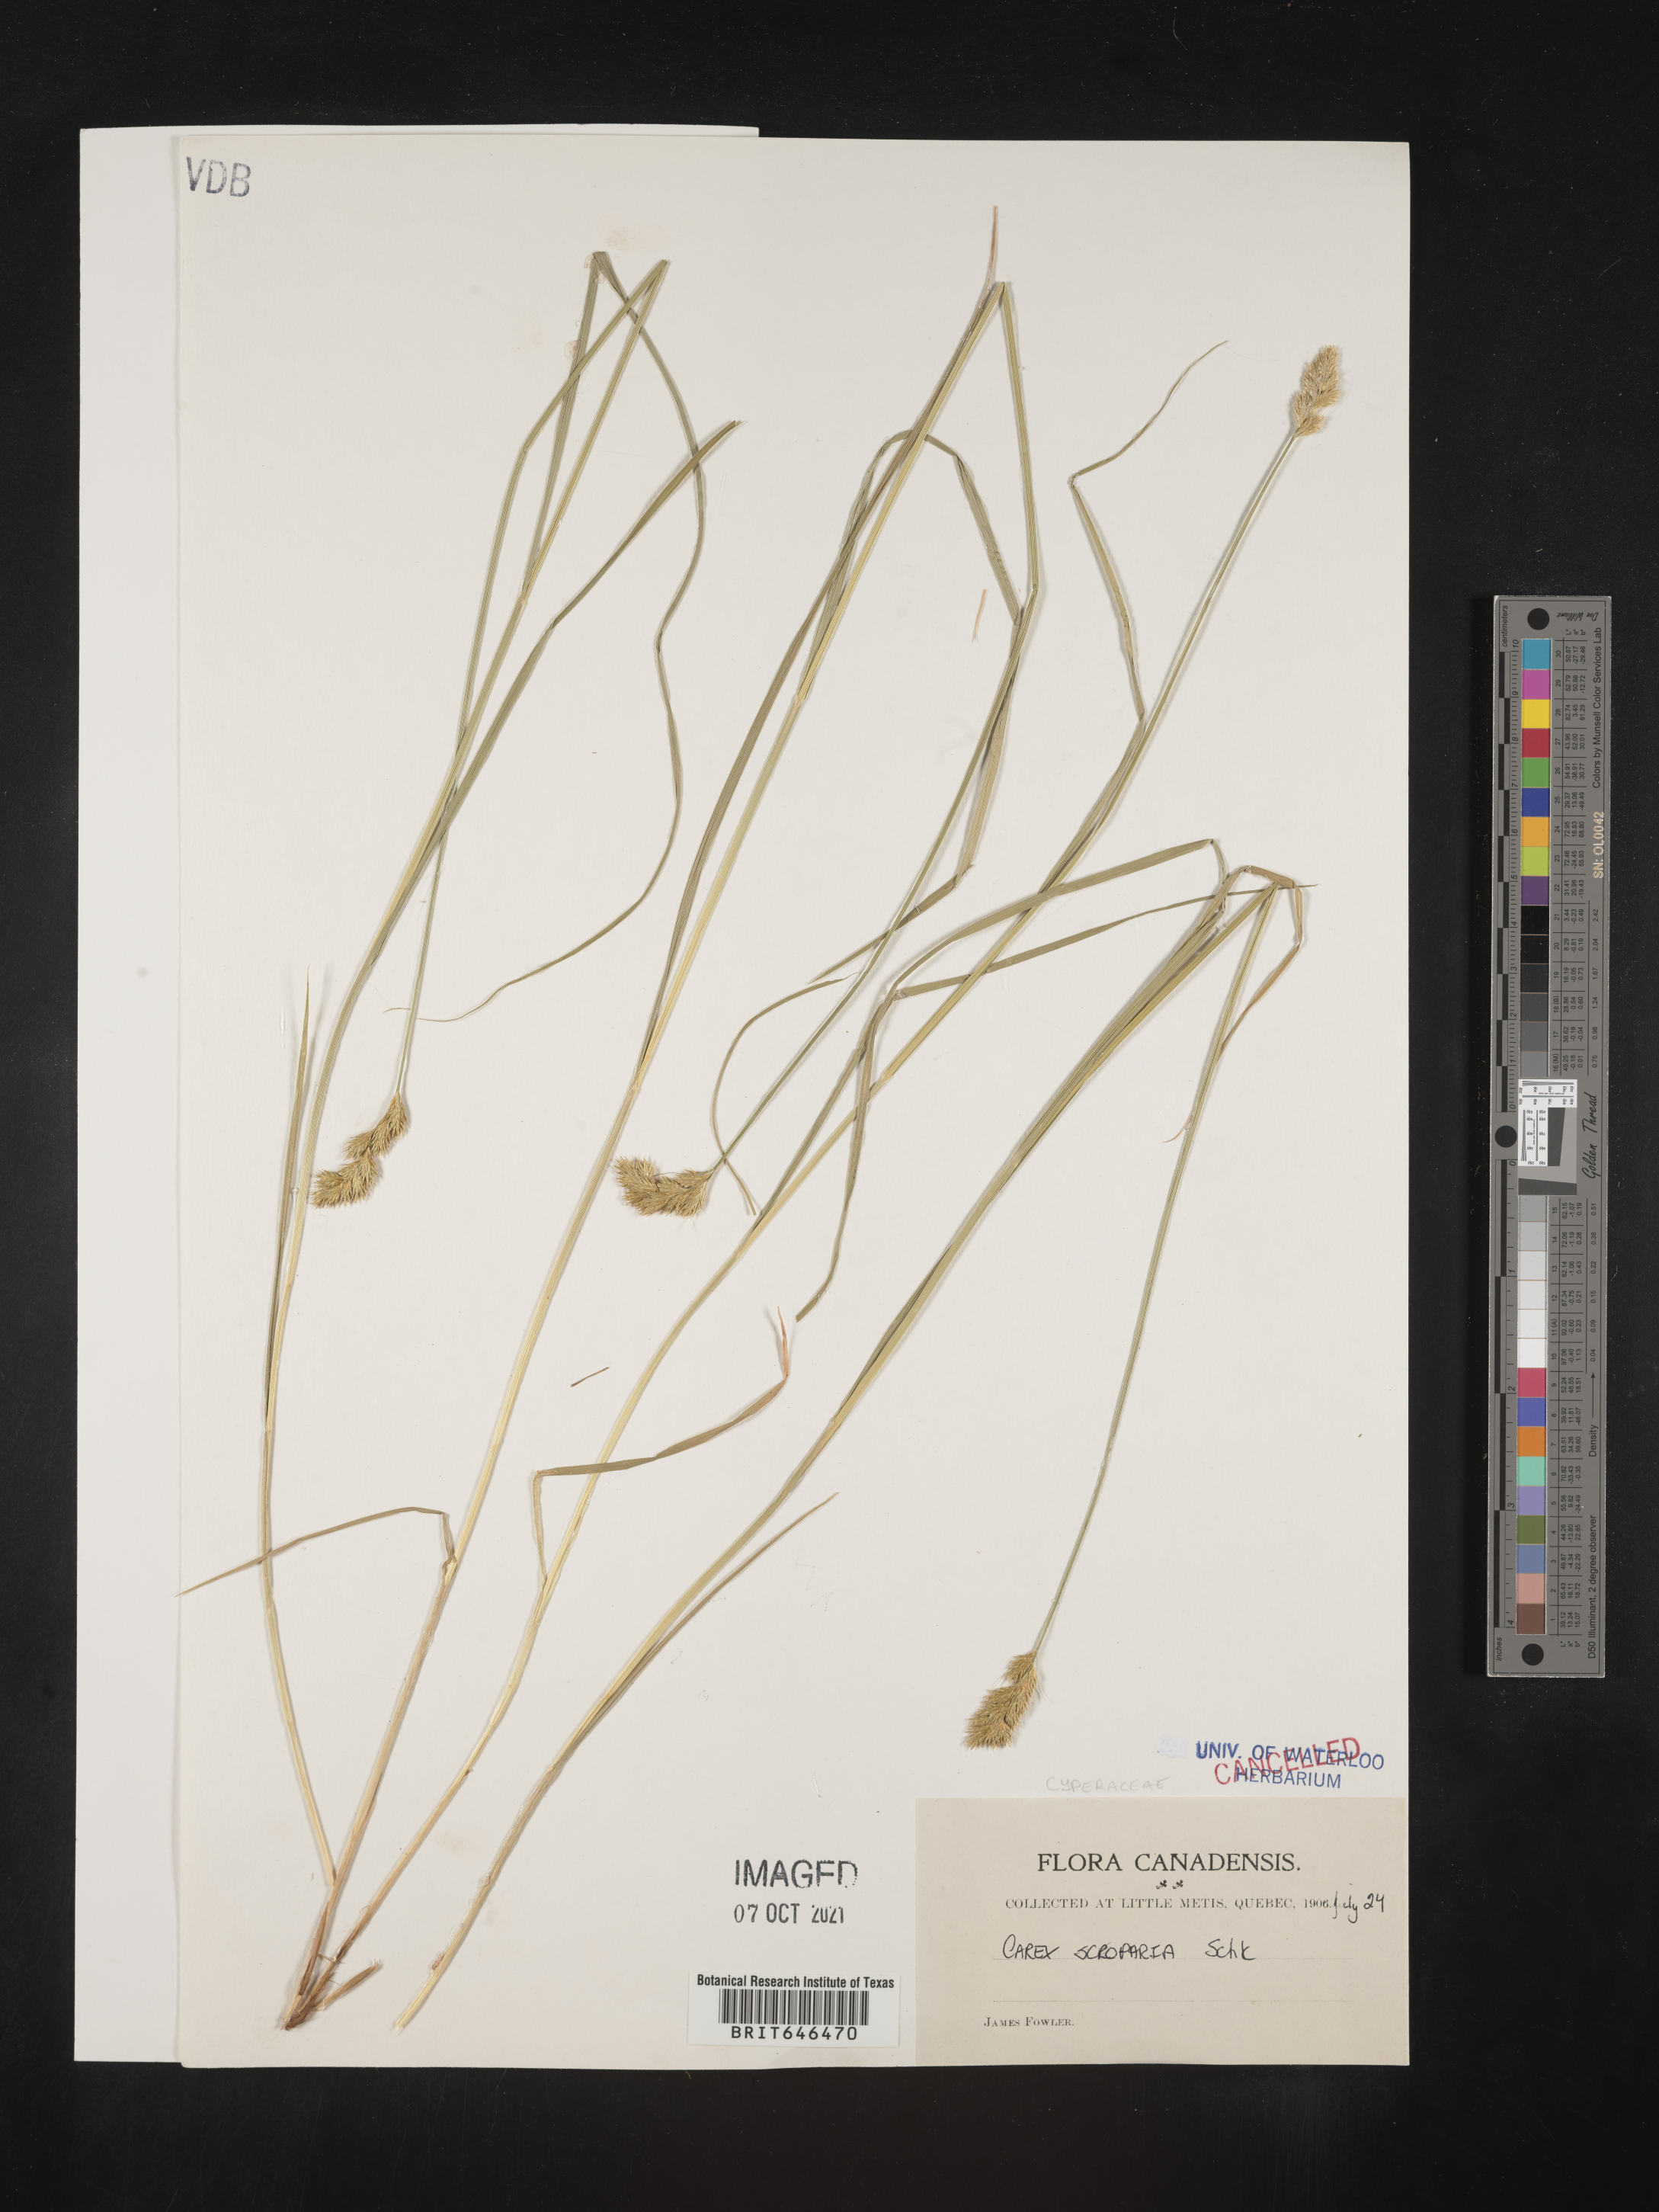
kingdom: Plantae
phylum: Tracheophyta
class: Liliopsida
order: Poales
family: Cyperaceae
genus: Carex
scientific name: Carex scoparia
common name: Broom sedge
